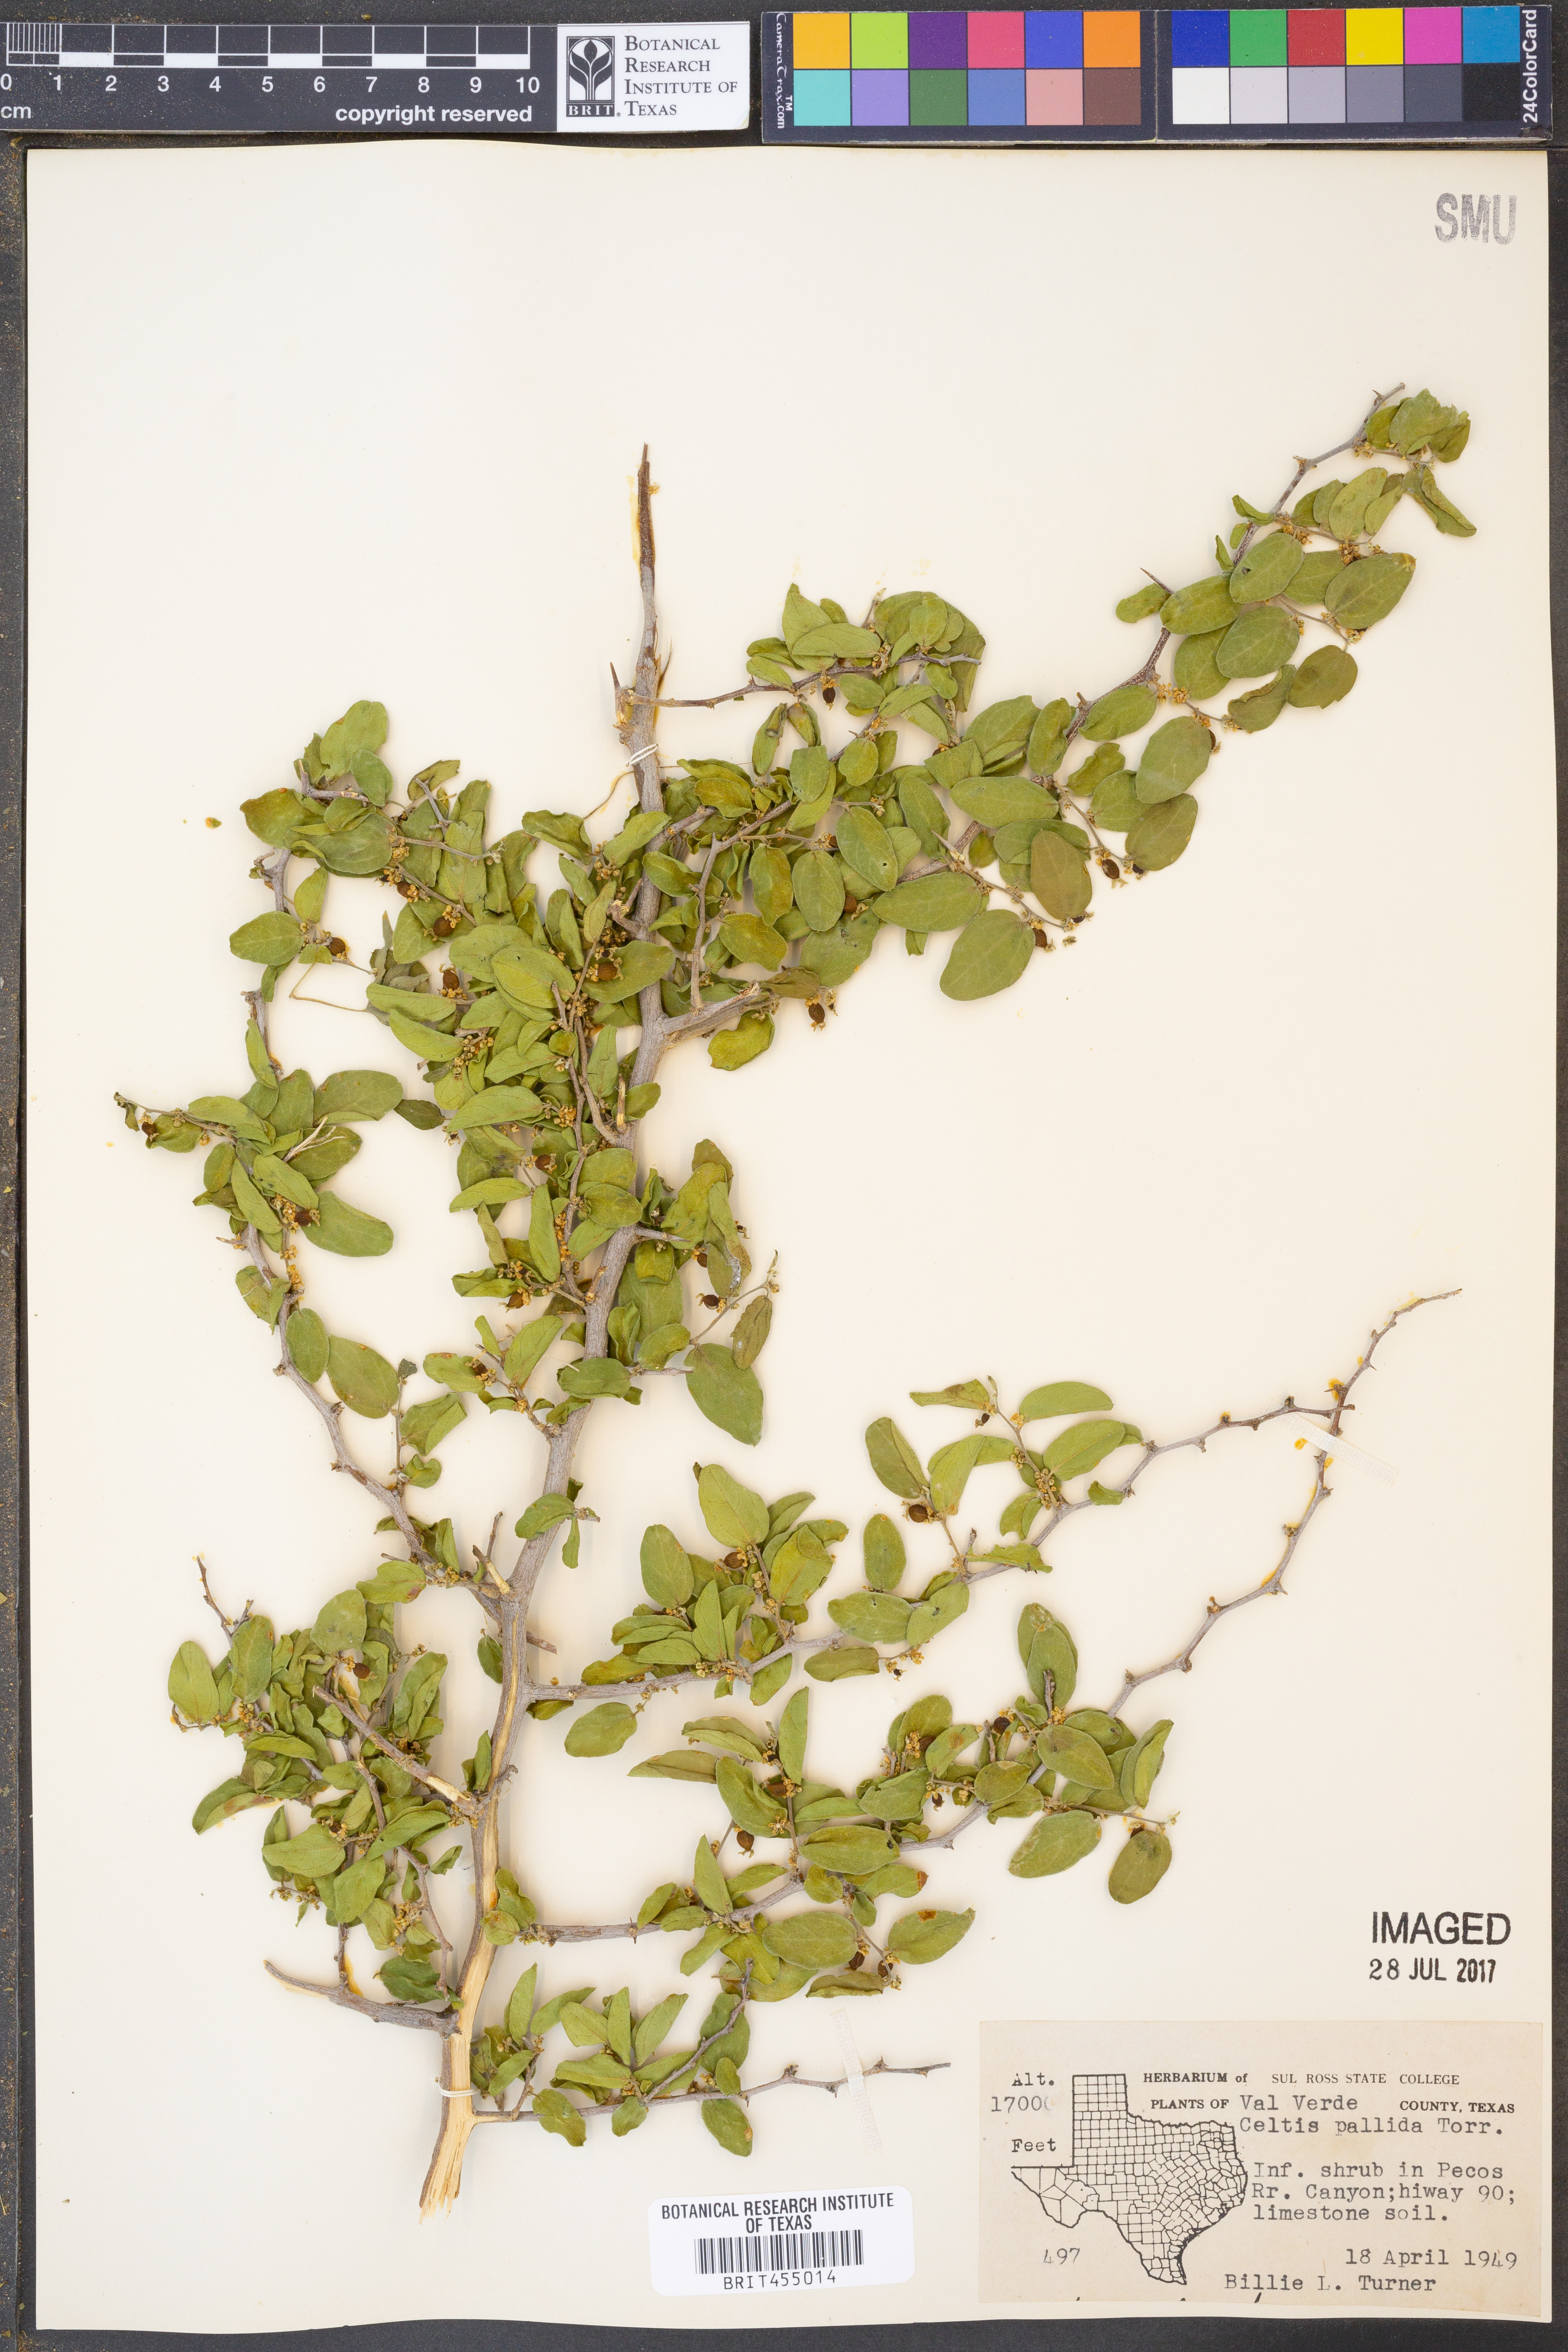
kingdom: Plantae
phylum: Tracheophyta
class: Magnoliopsida
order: Rosales
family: Cannabaceae
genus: Celtis
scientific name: Celtis pallida
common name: Desert hackberry
